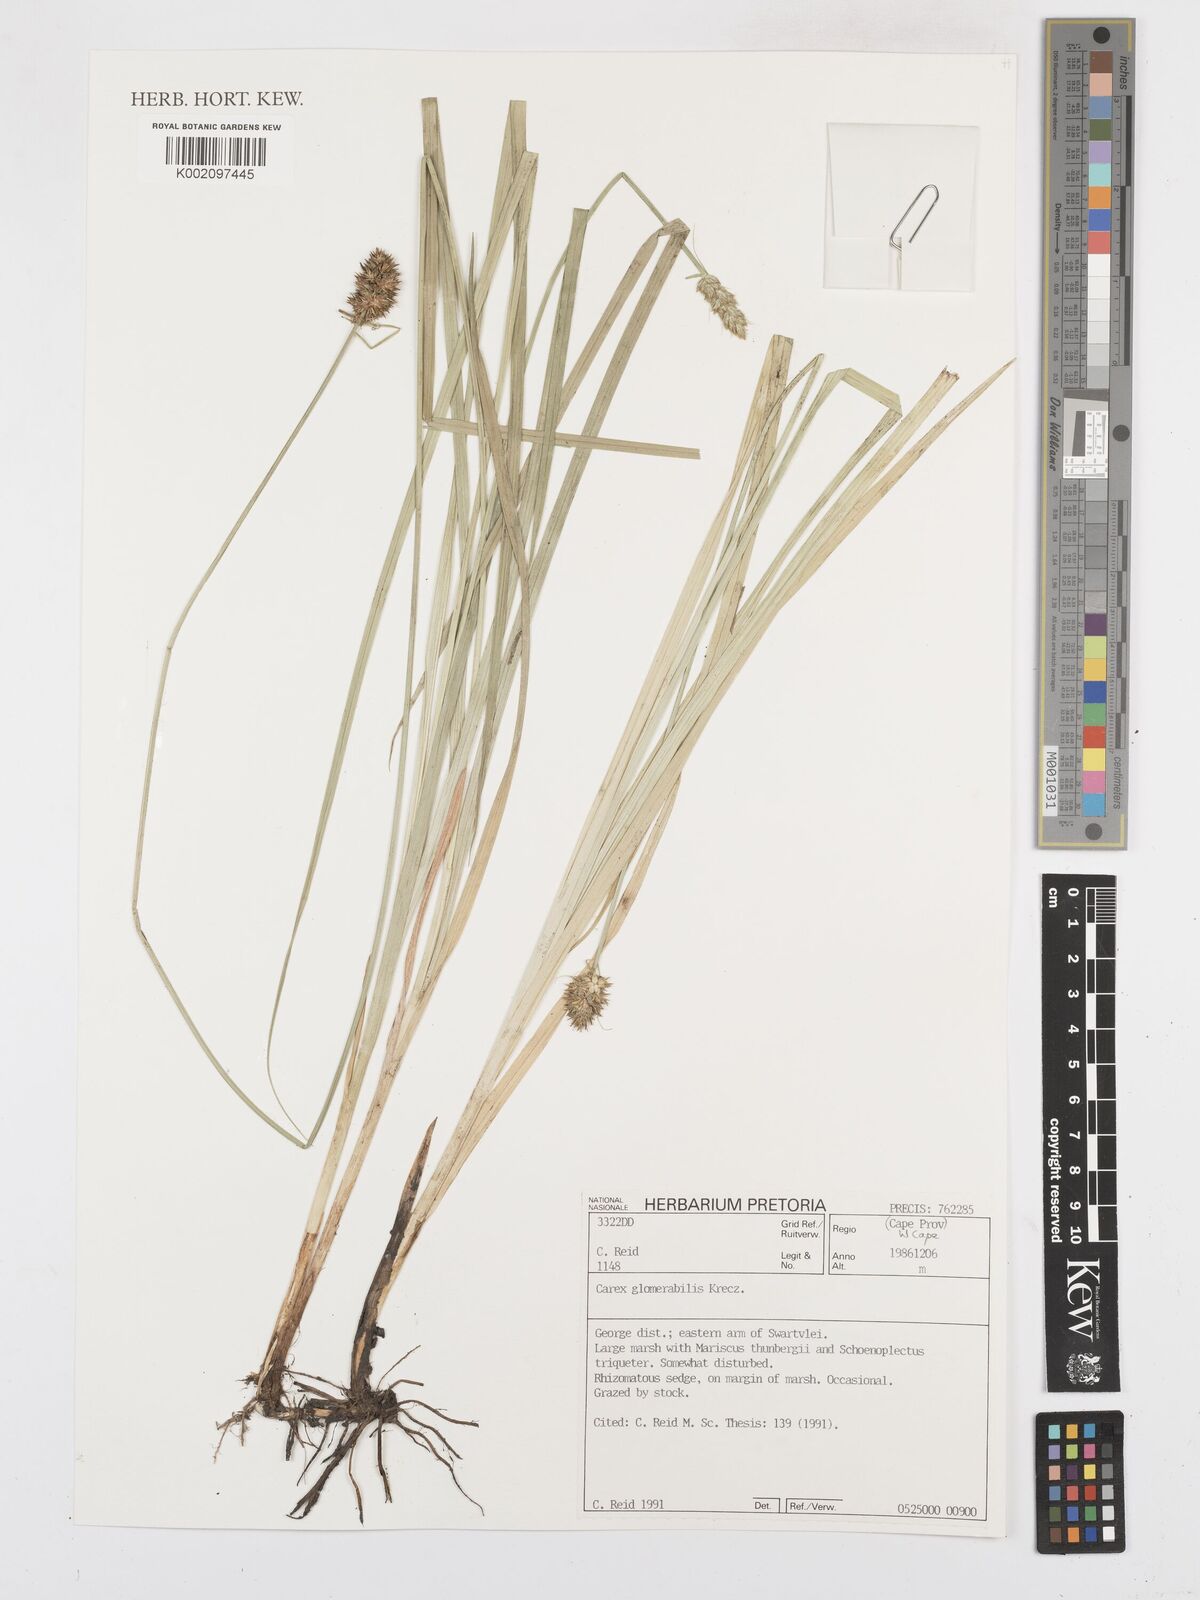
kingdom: Plantae
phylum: Tracheophyta
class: Liliopsida
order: Poales
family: Cyperaceae
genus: Carex
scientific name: Carex glomerata
